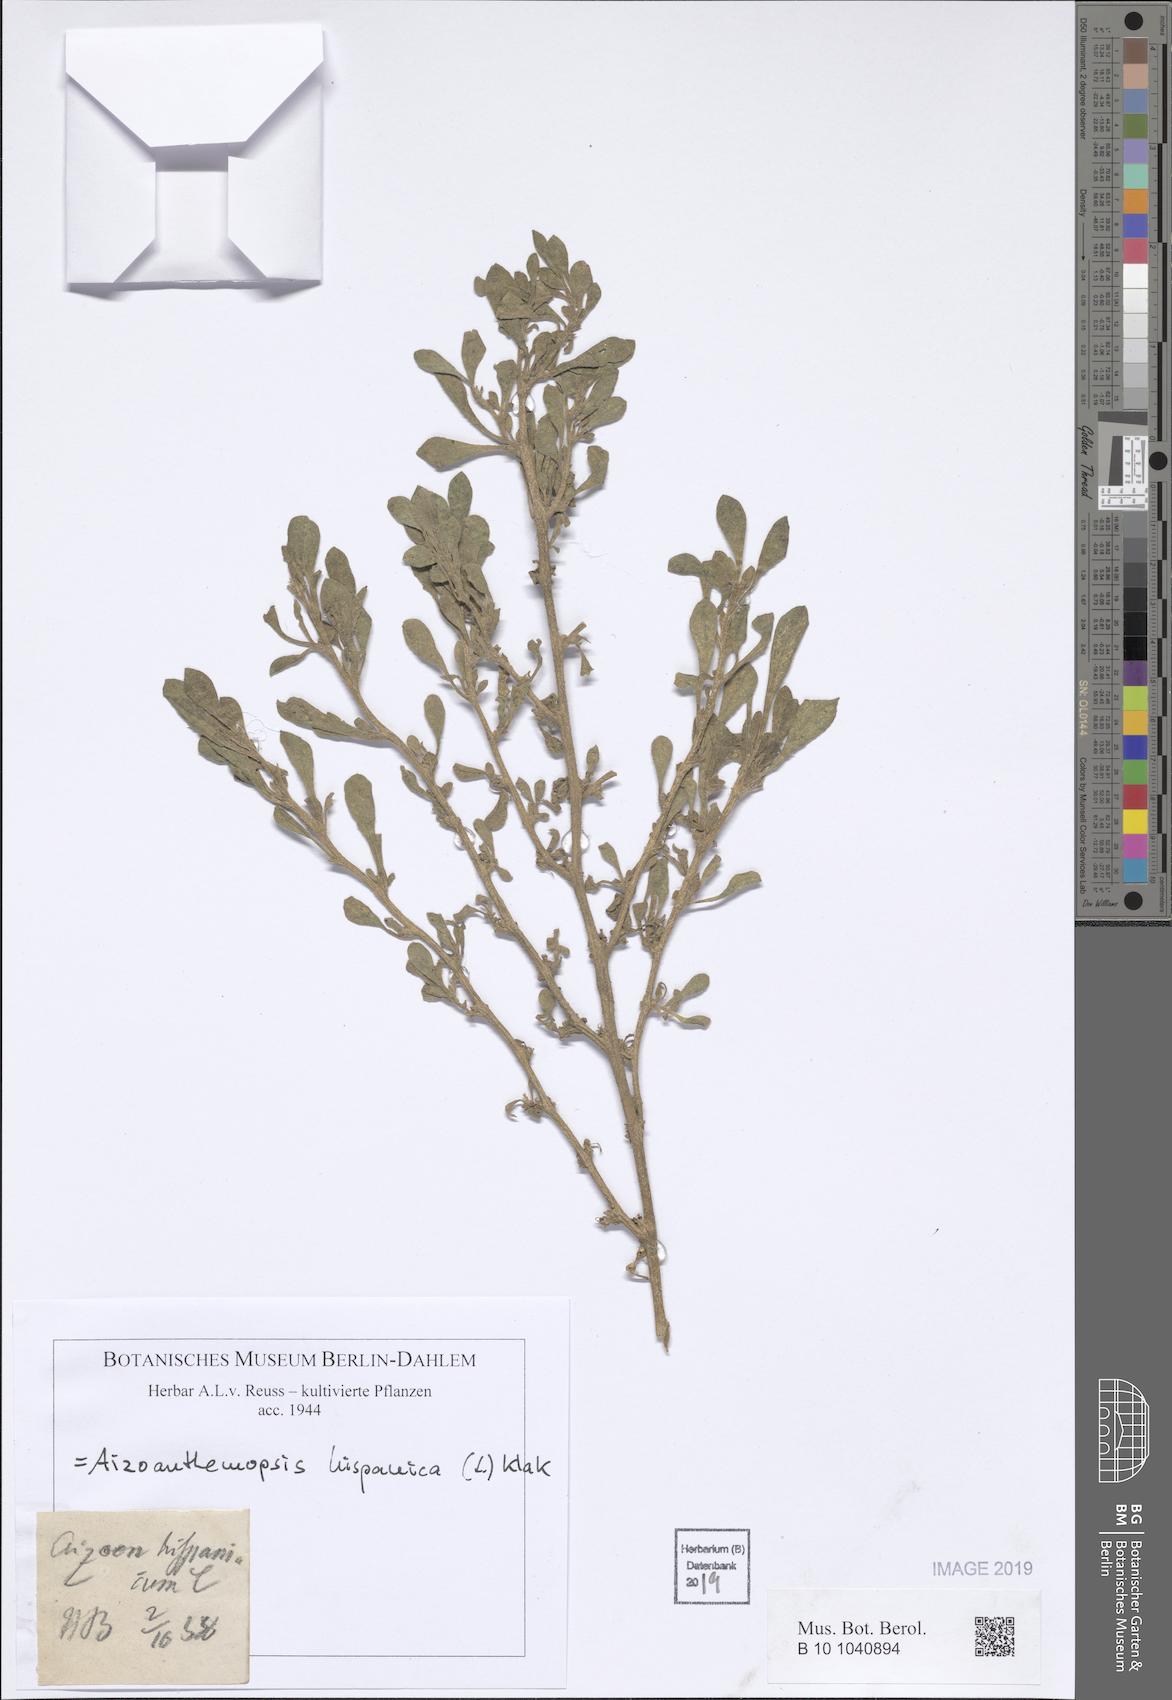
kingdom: Plantae
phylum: Tracheophyta
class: Magnoliopsida
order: Caryophyllales
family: Aizoaceae
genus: Aizoanthemopsis
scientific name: Aizoanthemopsis hispanica
